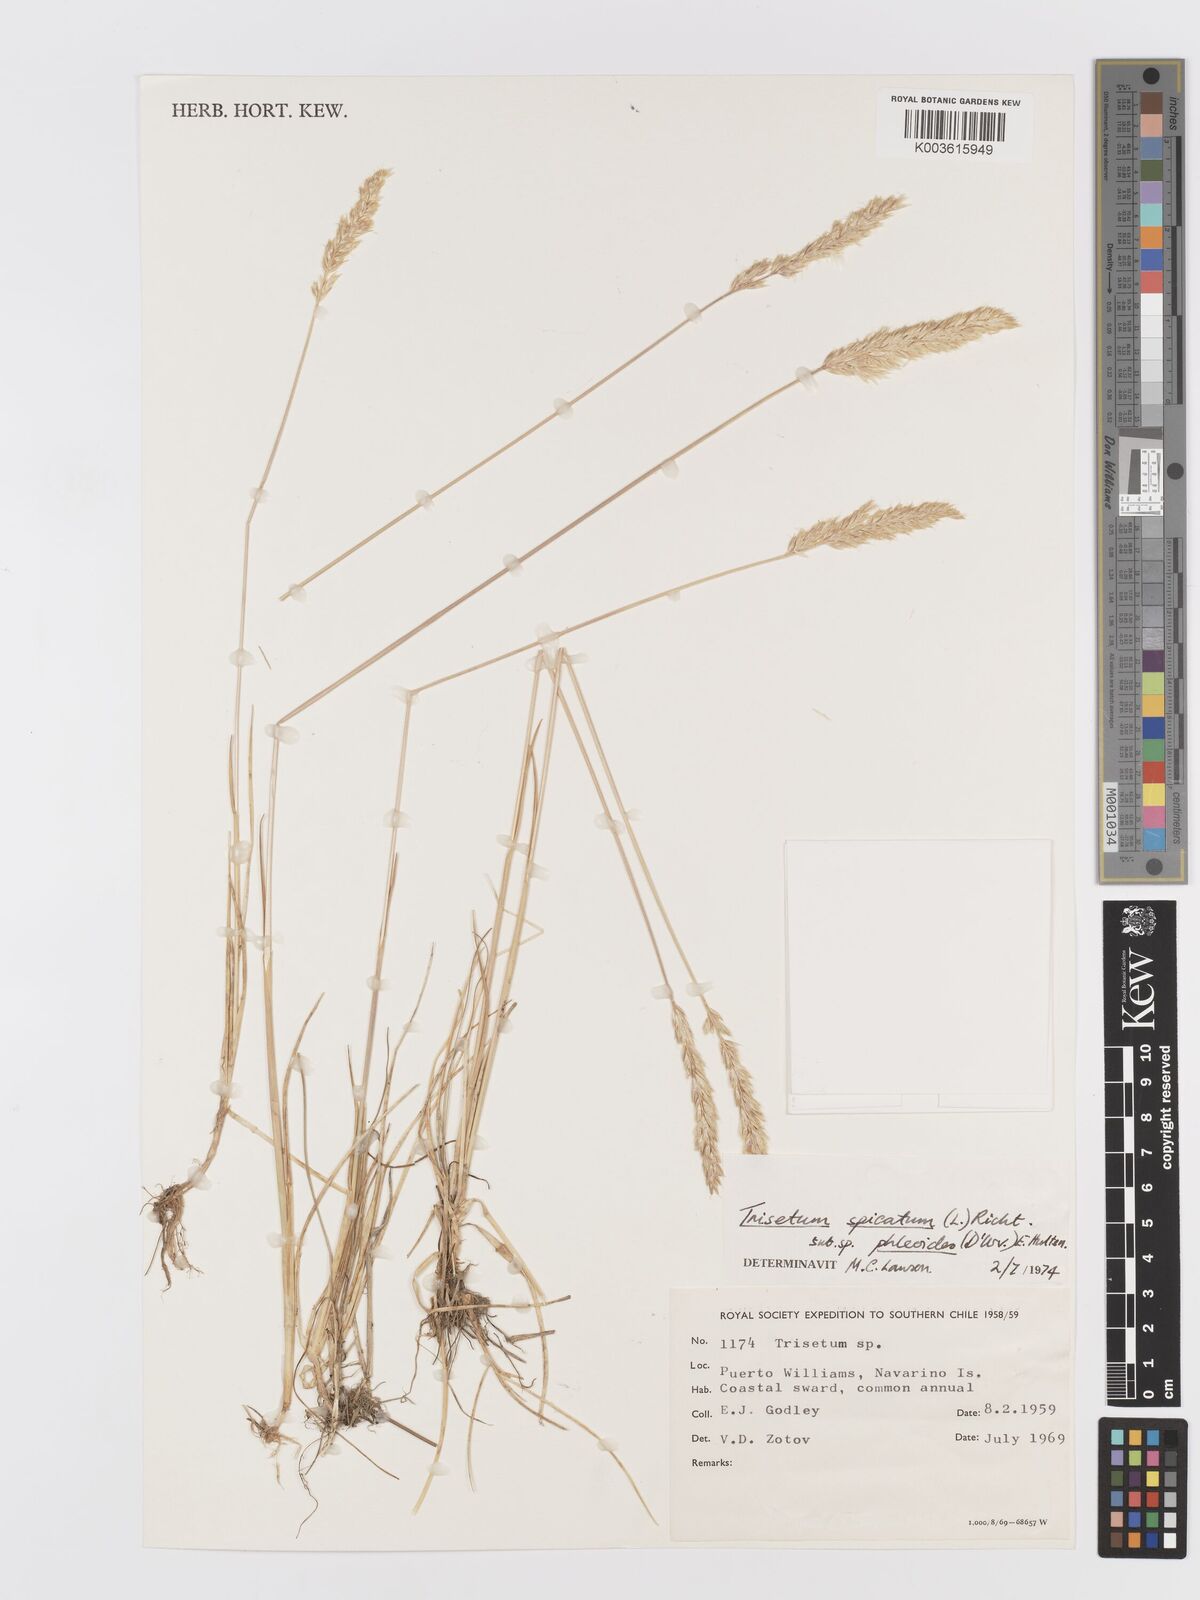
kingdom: Plantae
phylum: Tracheophyta
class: Liliopsida
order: Poales
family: Poaceae
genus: Koeleria
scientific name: Koeleria spicata
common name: Mountain trisetum
